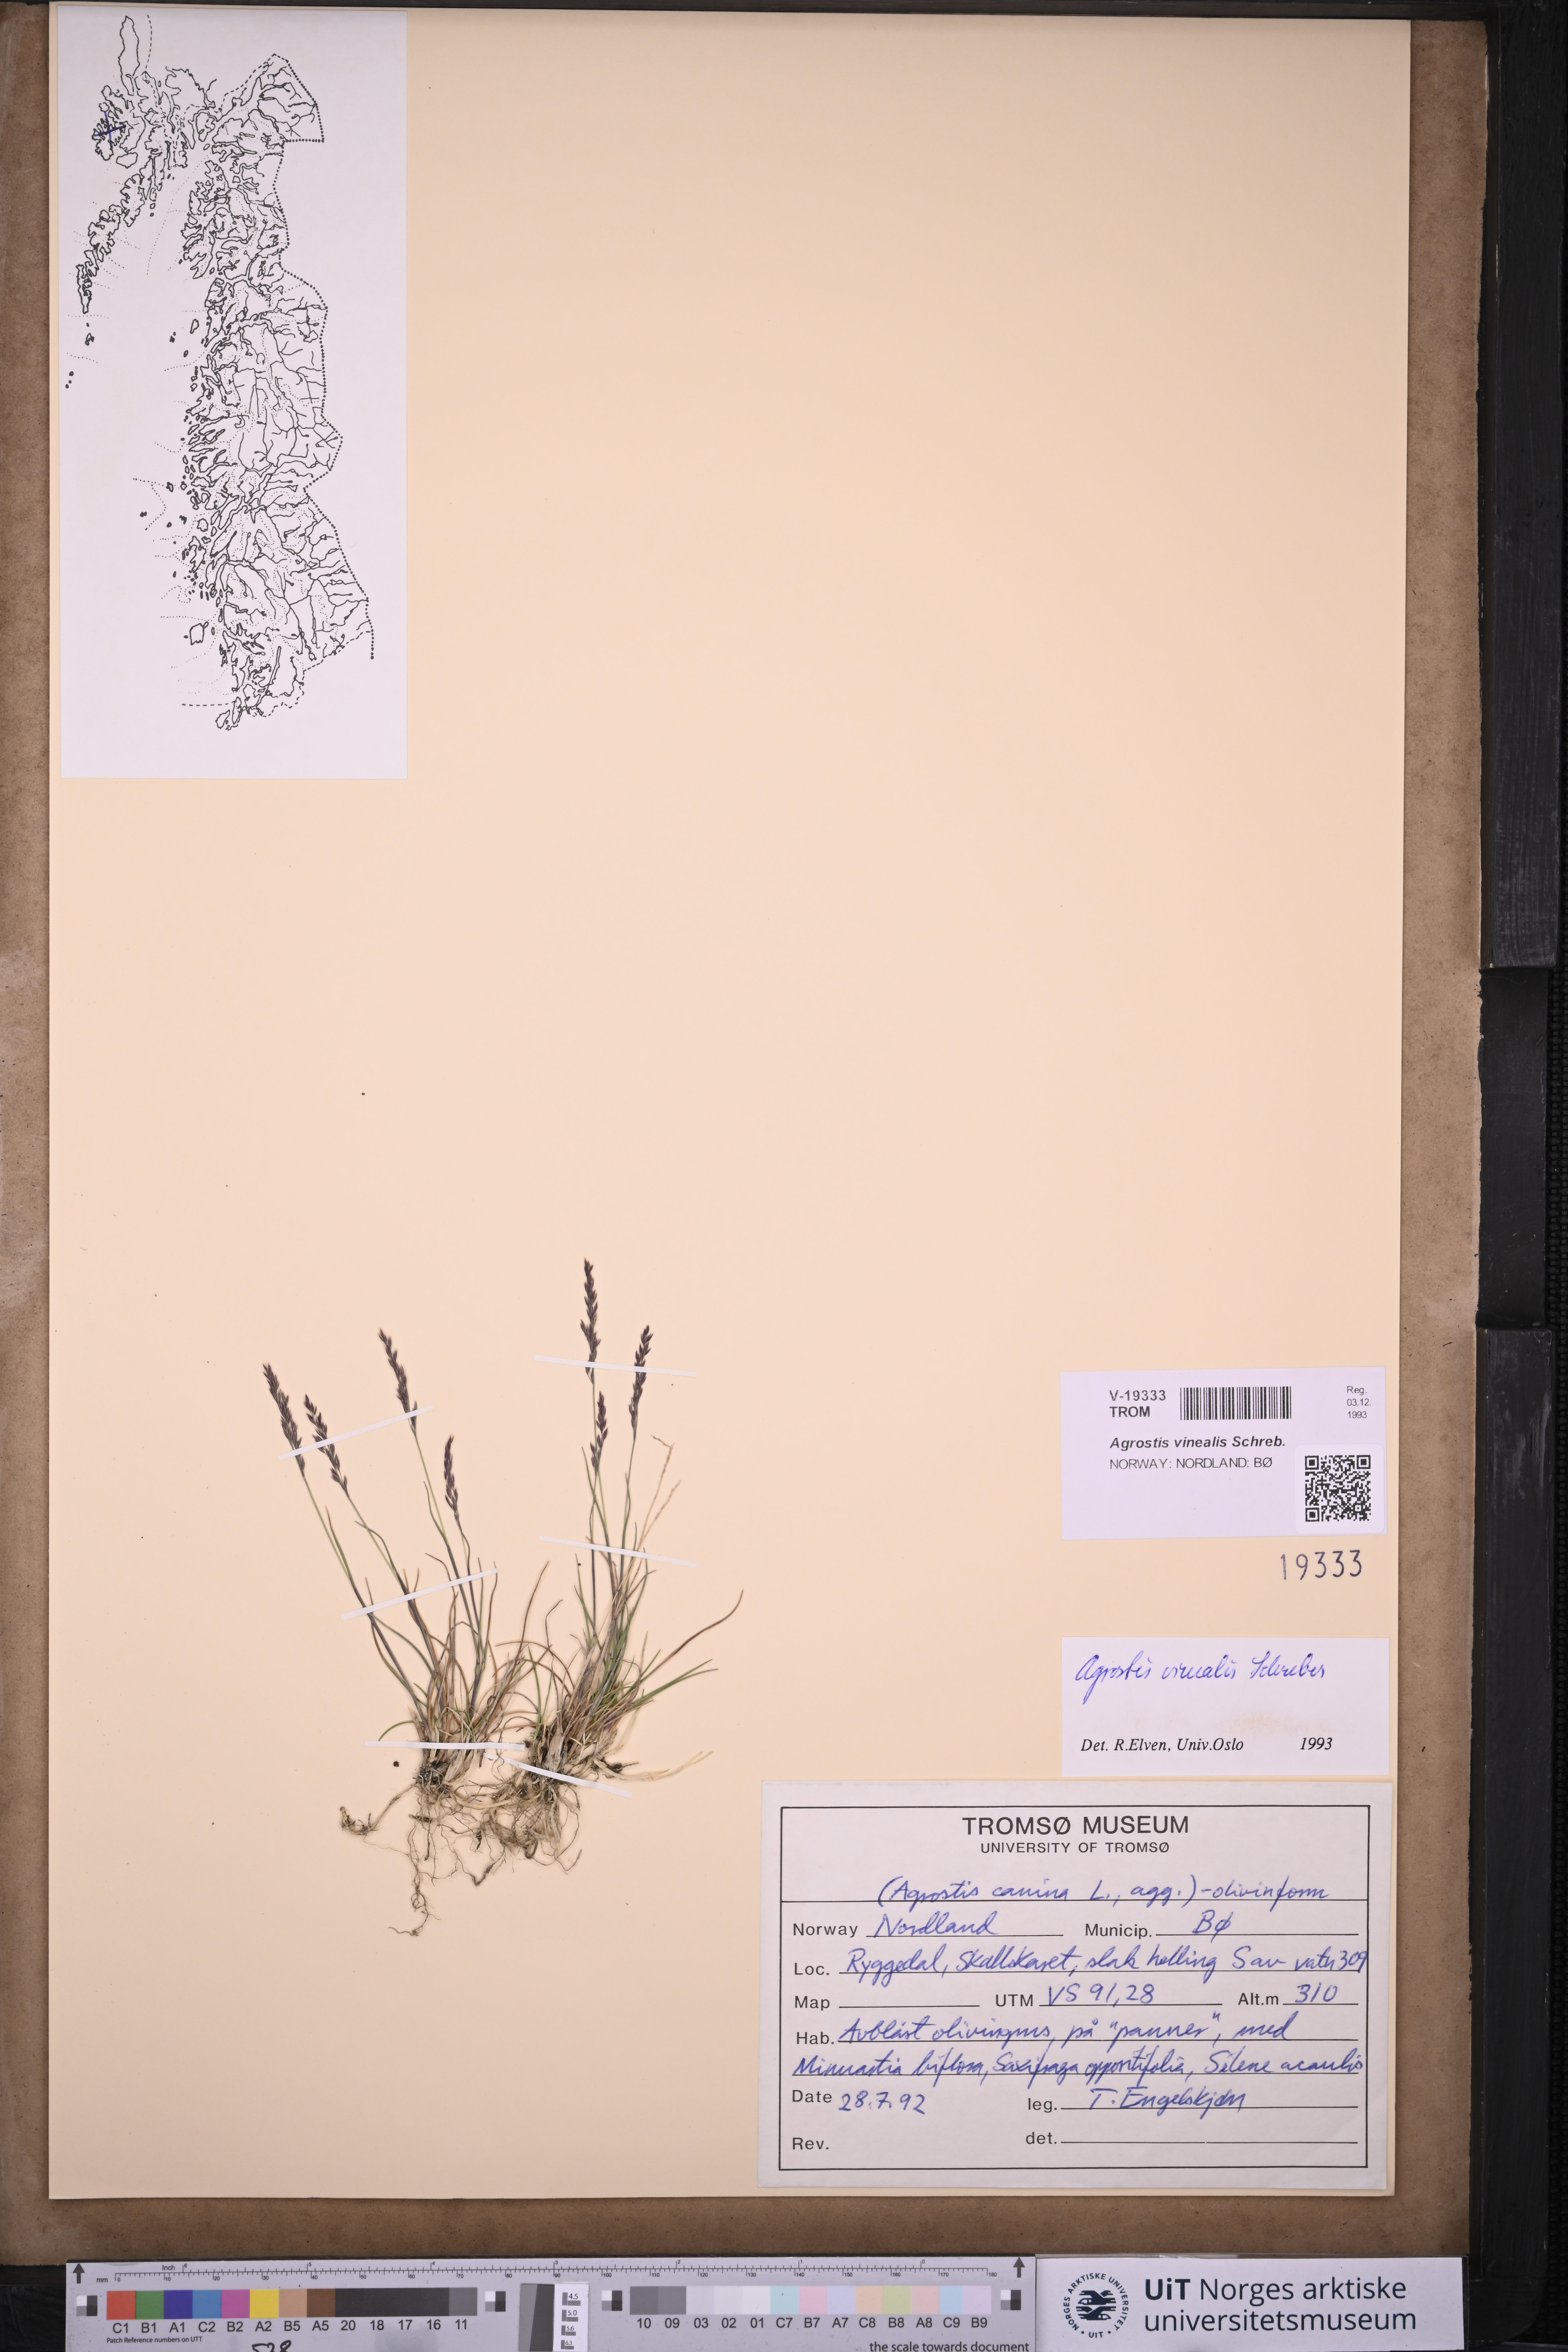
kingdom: Plantae
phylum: Tracheophyta
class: Liliopsida
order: Poales
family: Poaceae
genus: Agrostis
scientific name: Agrostis vinealis
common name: Brown bent
